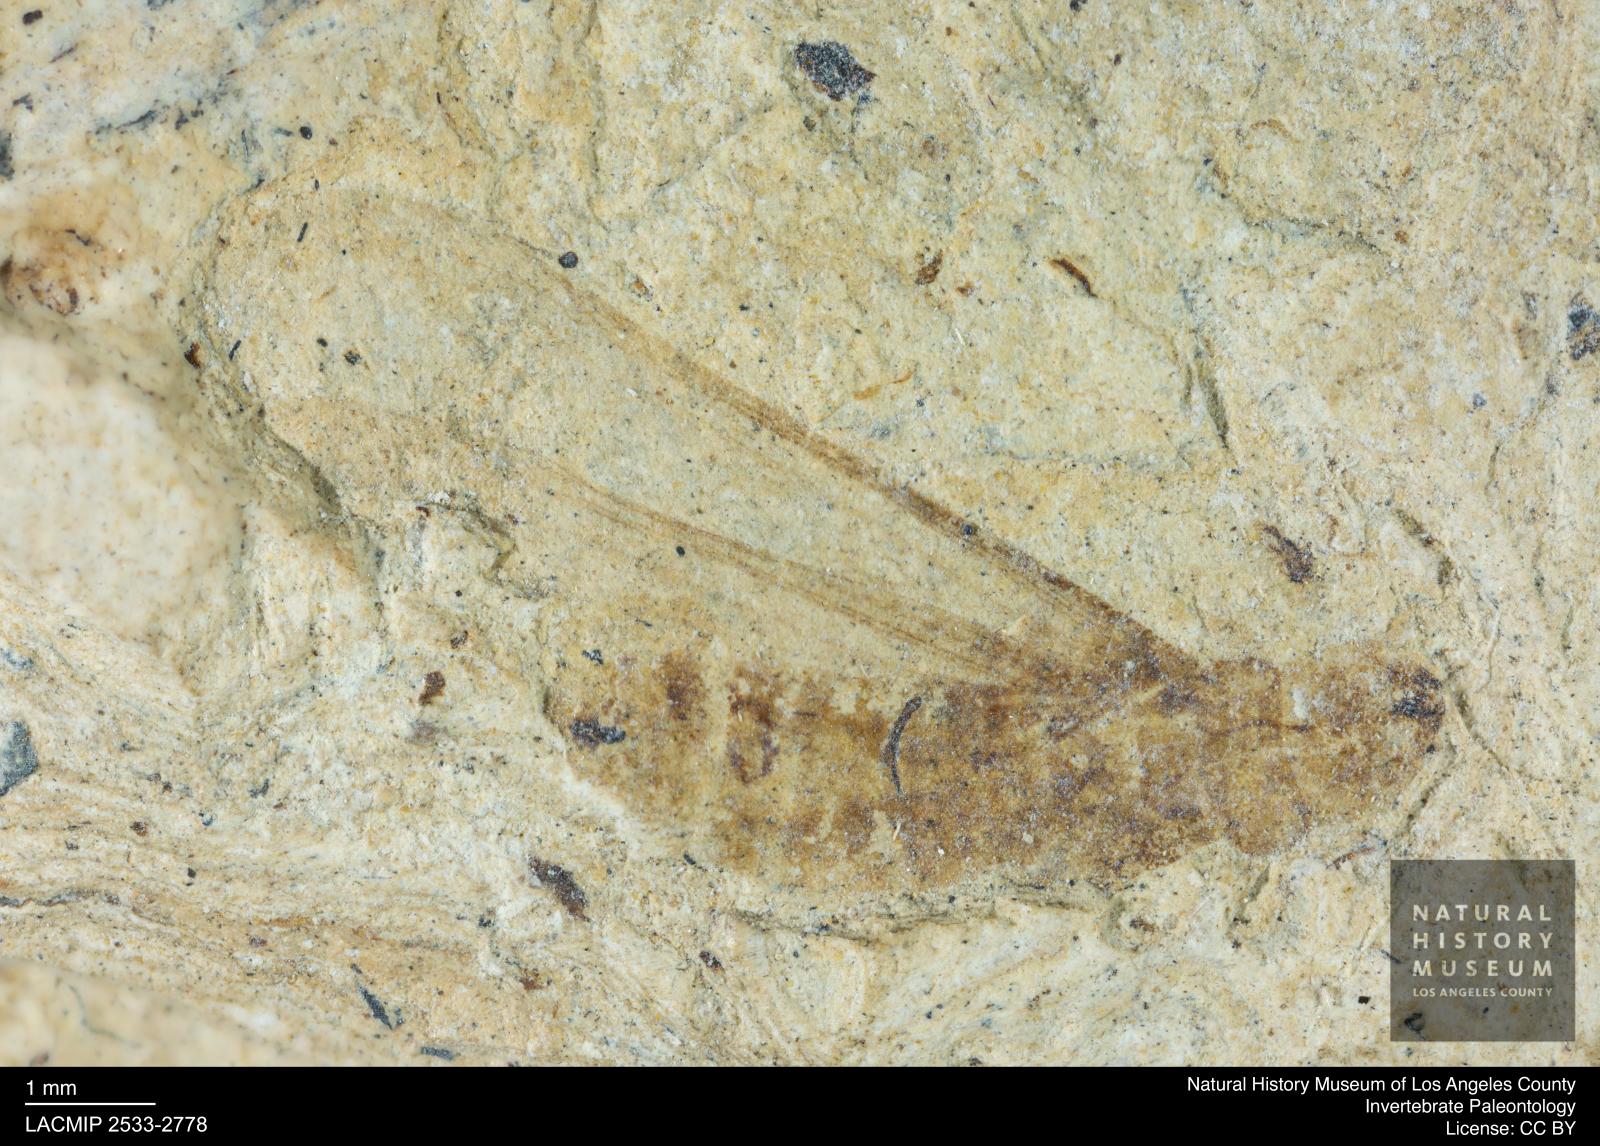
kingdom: Animalia
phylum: Arthropoda
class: Insecta
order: Blattodea
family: Kalotermitidae
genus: Kalotermes
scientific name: Kalotermes rhenanus
